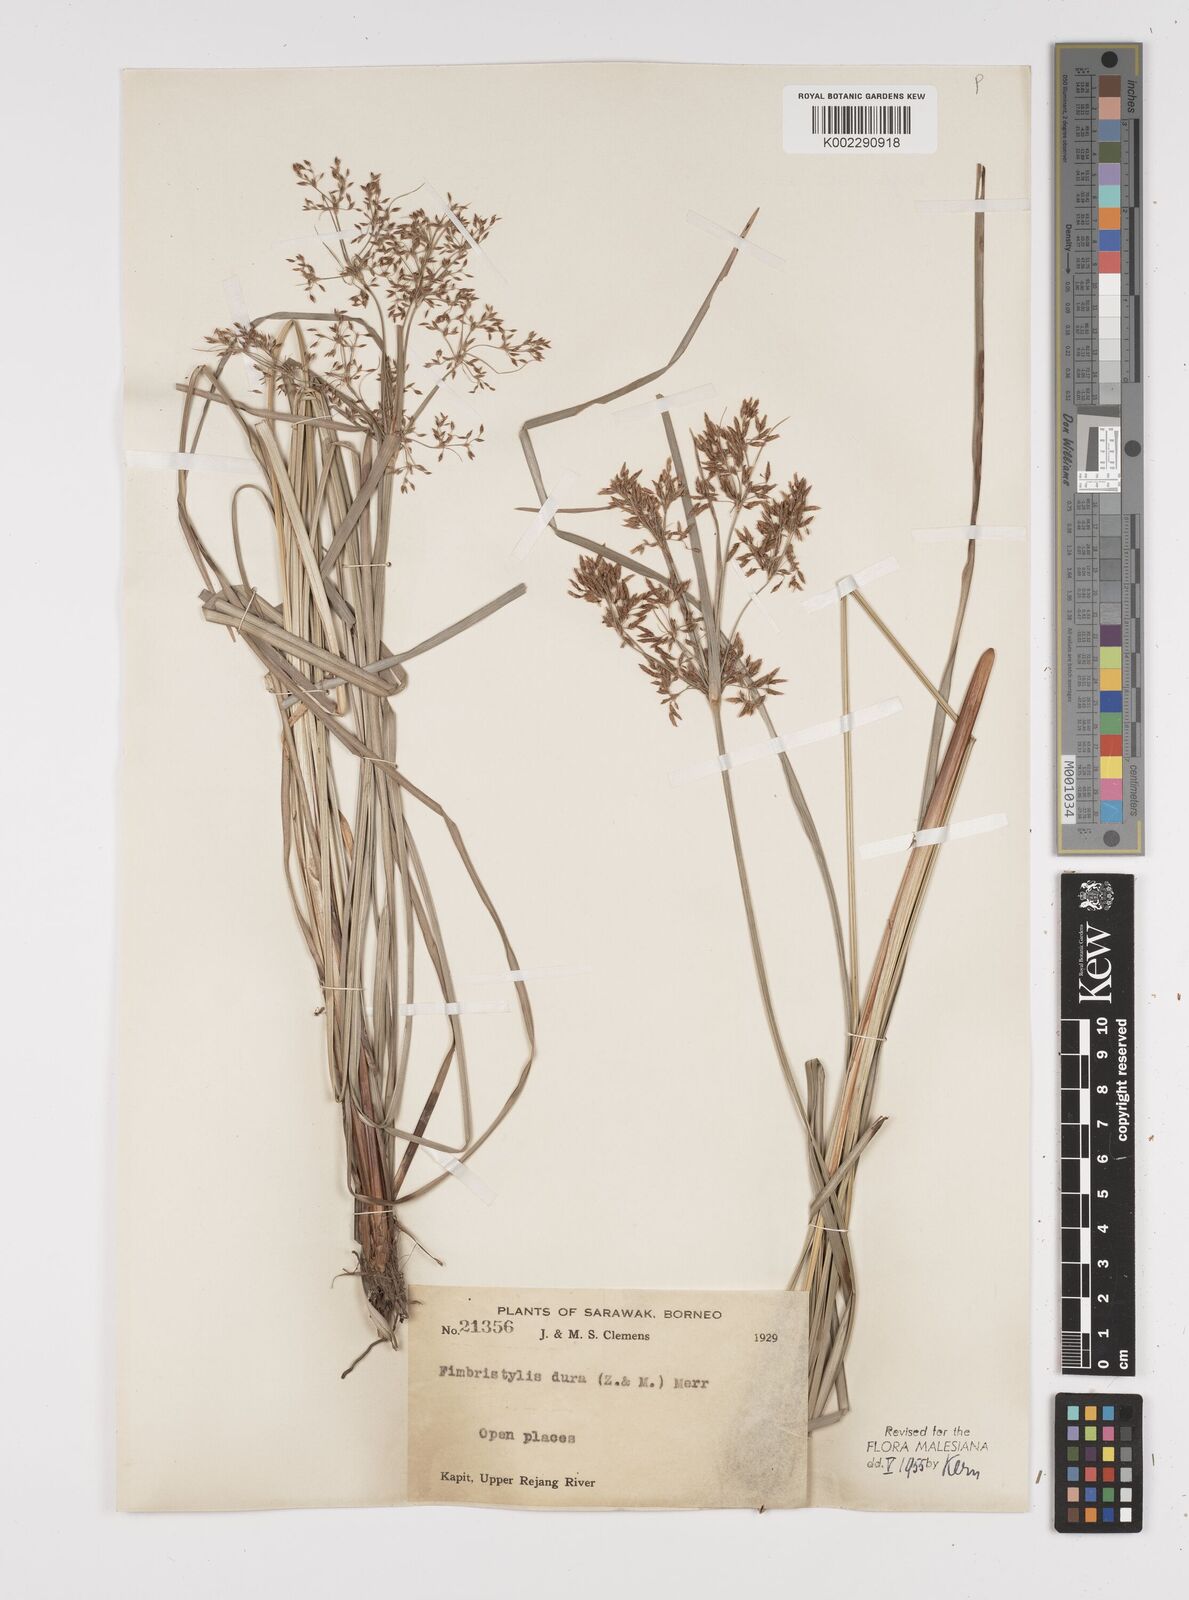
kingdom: Plantae
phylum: Tracheophyta
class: Liliopsida
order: Poales
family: Cyperaceae
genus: Fimbristylis
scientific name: Fimbristylis dura
